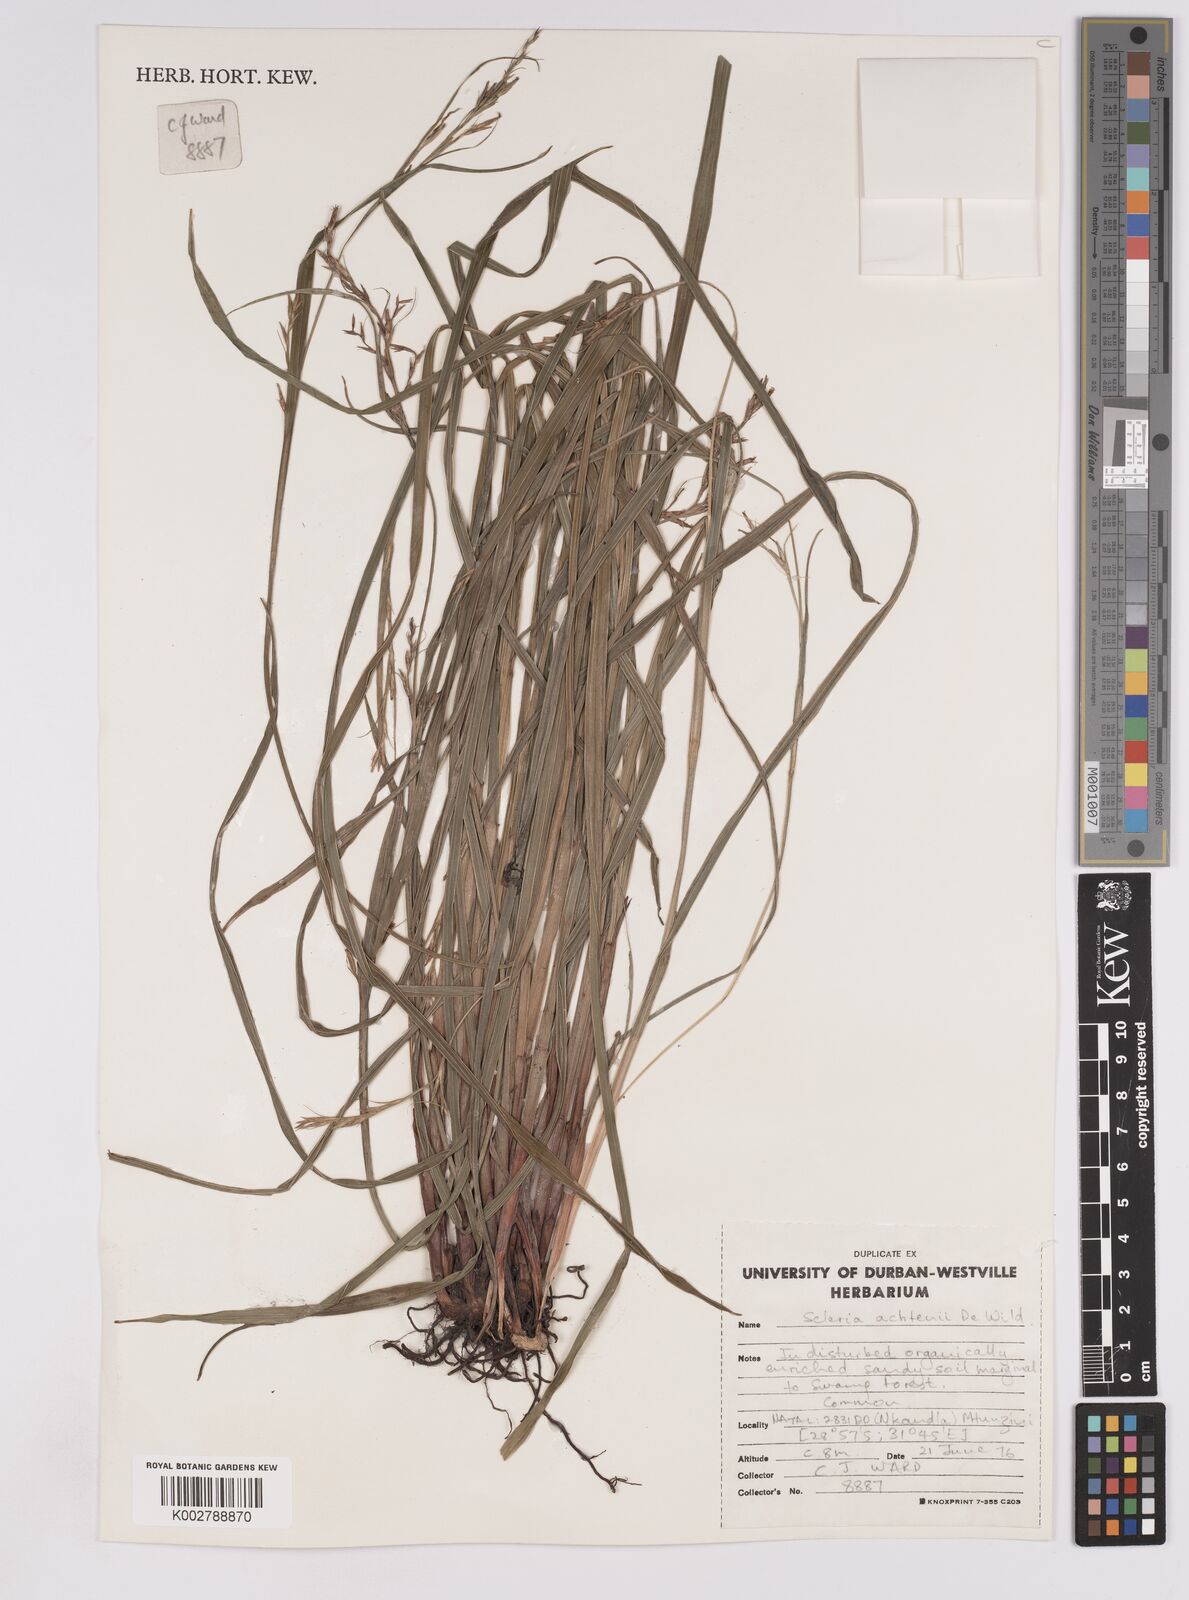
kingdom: Plantae
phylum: Tracheophyta
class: Liliopsida
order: Poales
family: Cyperaceae
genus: Scleria
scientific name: Scleria achtenii
